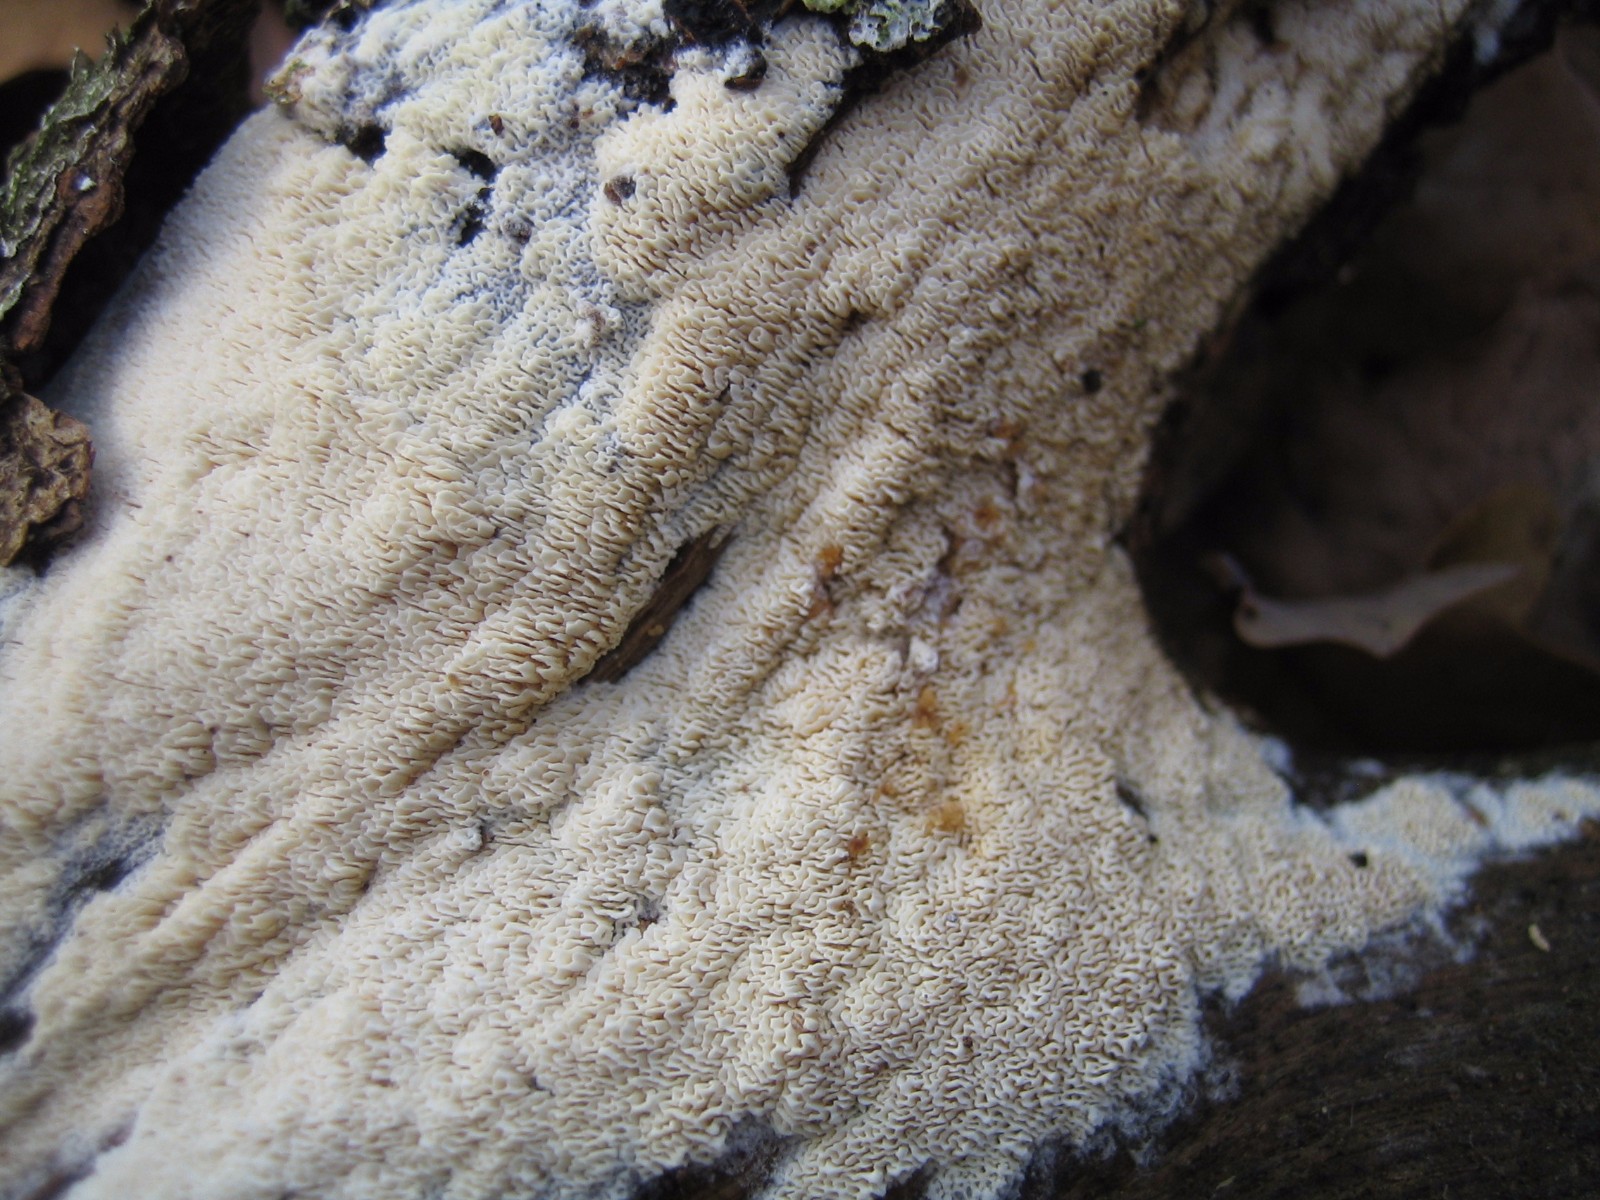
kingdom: Fungi
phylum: Basidiomycota
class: Agaricomycetes
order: Hymenochaetales
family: Schizoporaceae
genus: Xylodon
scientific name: Xylodon subtropicus
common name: labyrint-tandsvamp
